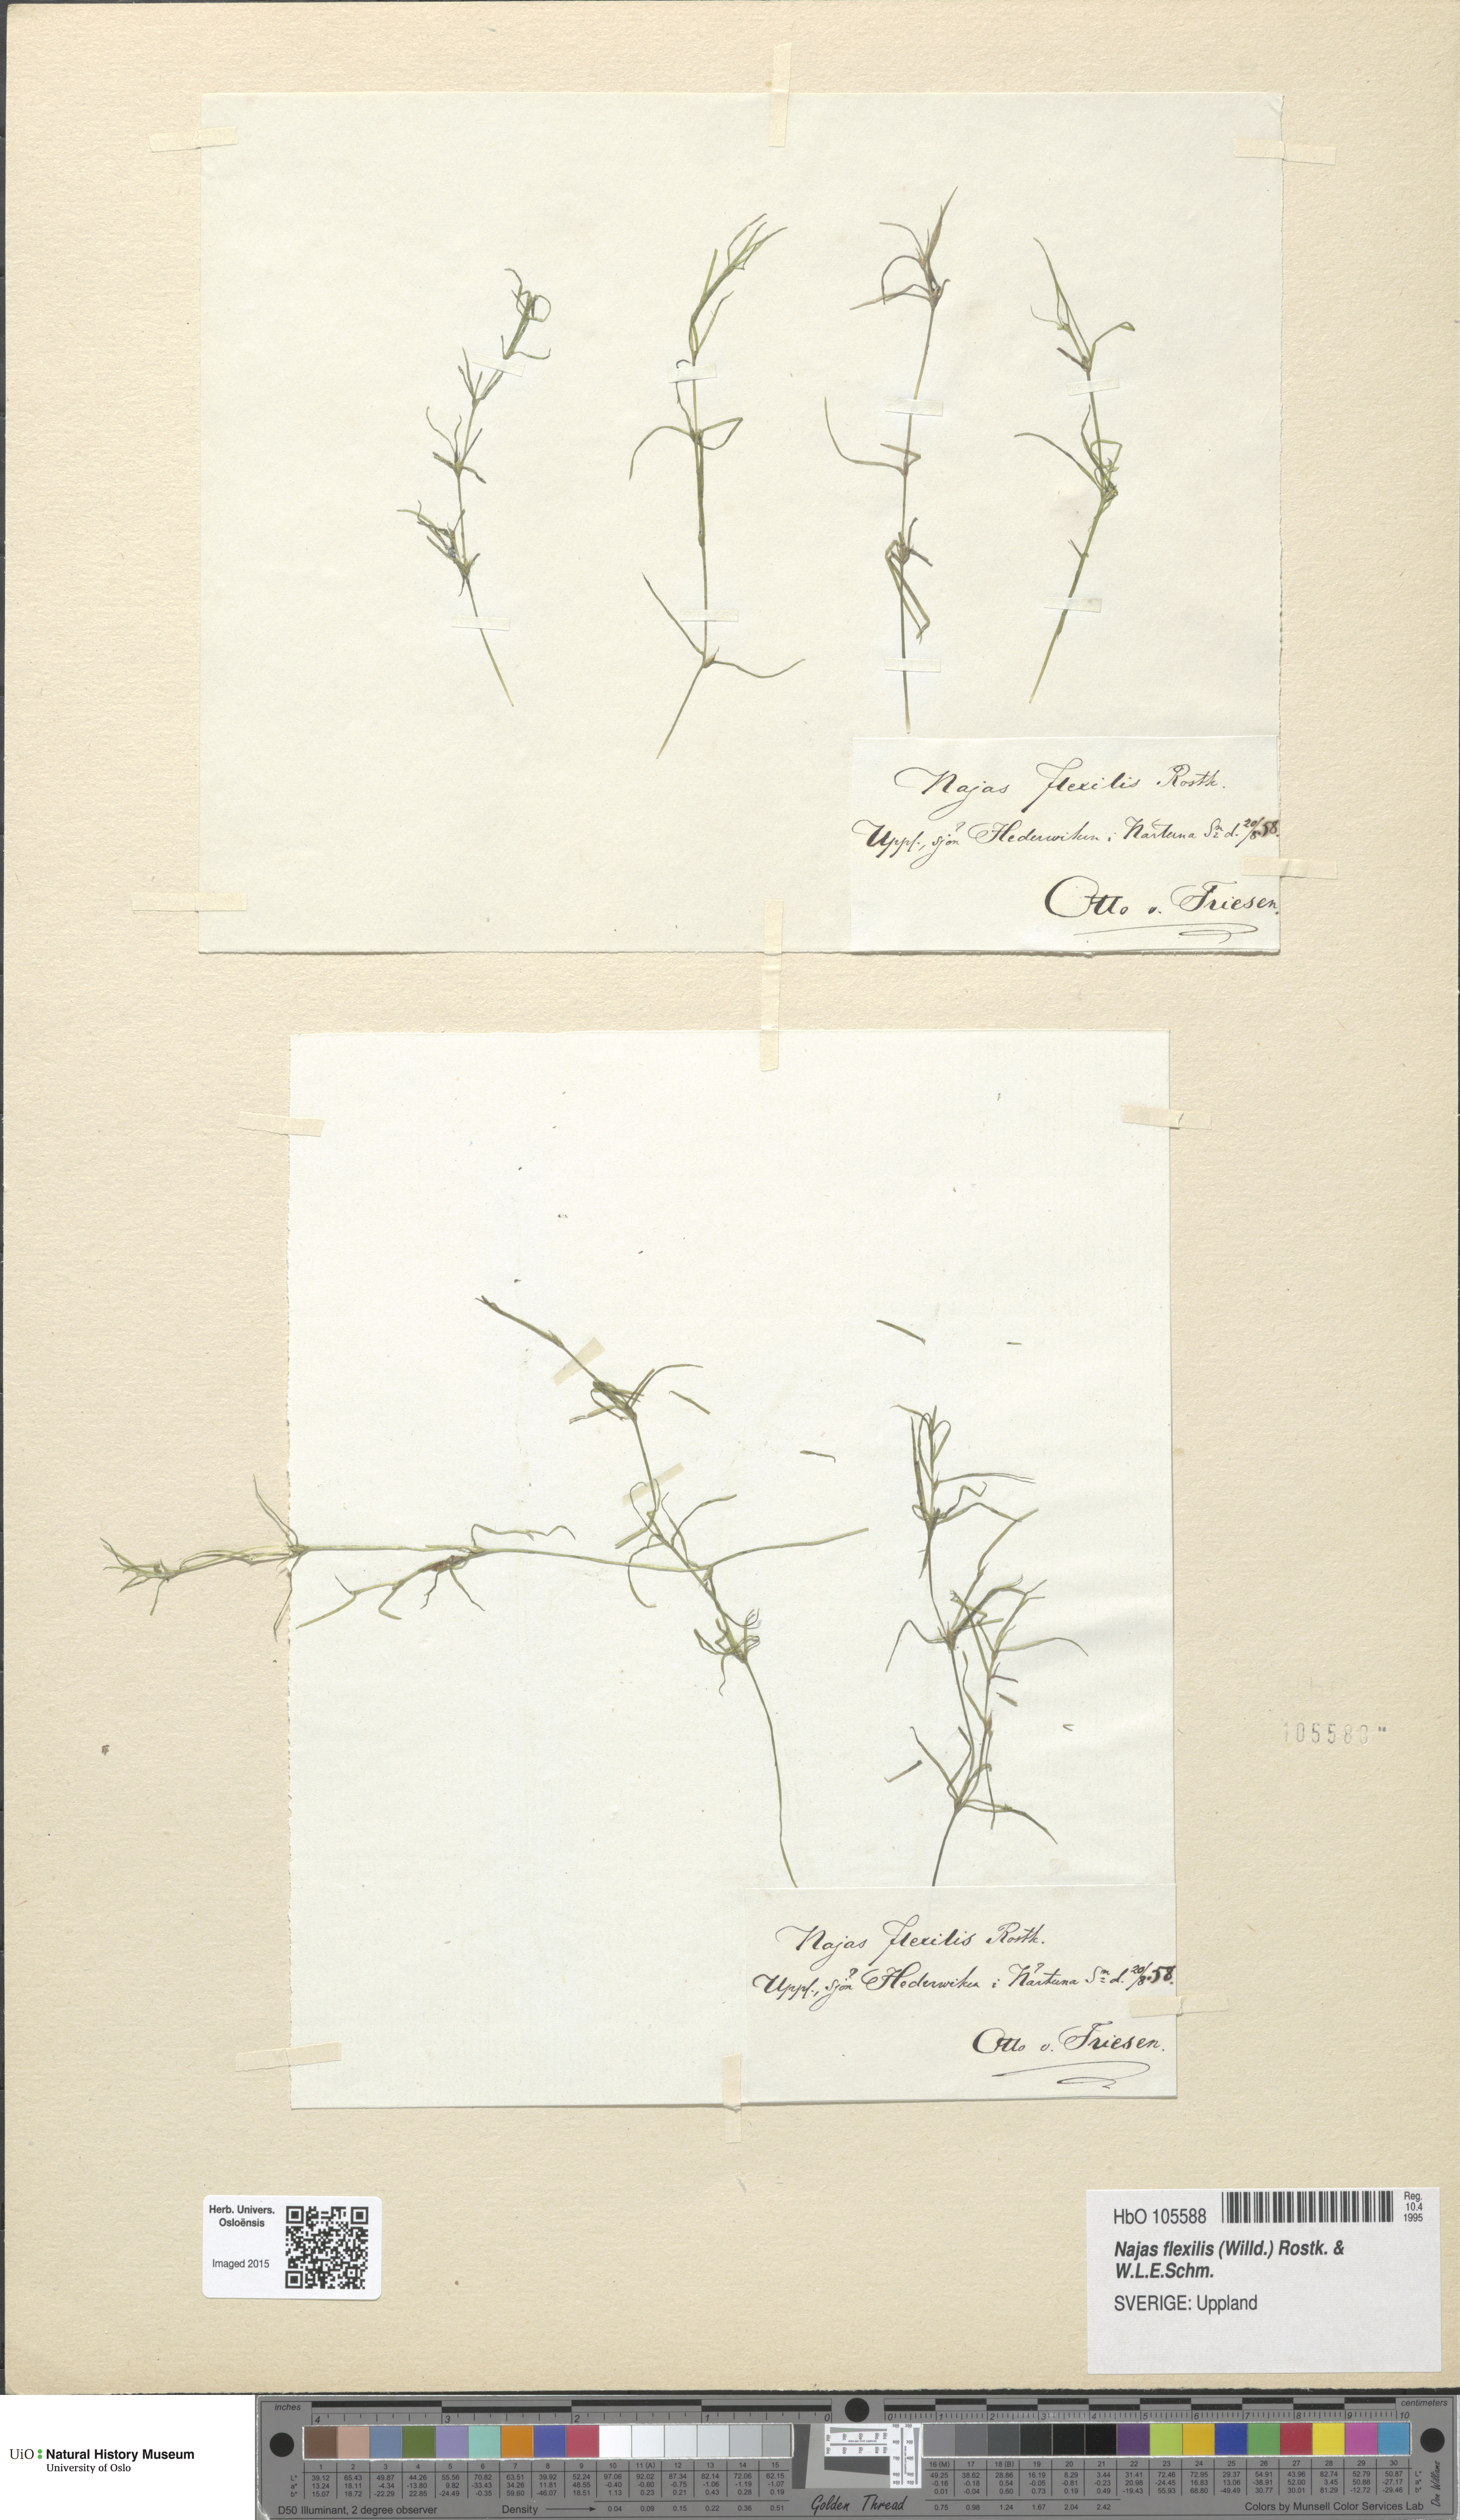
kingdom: Plantae
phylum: Tracheophyta
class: Liliopsida
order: Alismatales
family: Hydrocharitaceae
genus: Najas
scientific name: Najas flexilis
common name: Slender naiad
